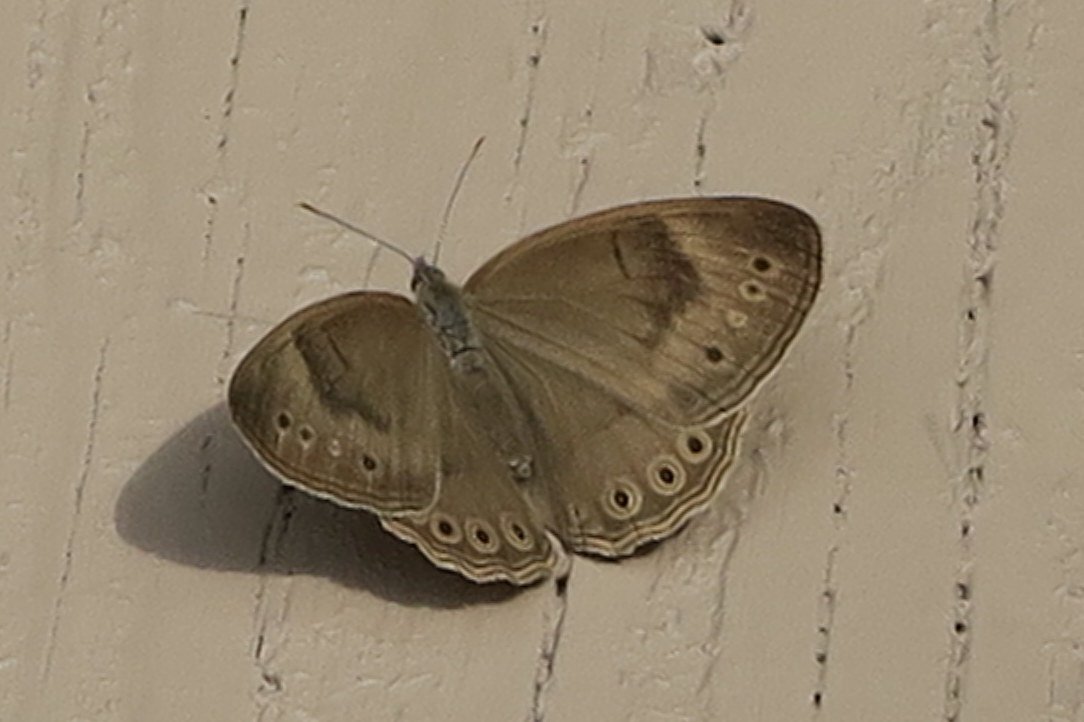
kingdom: Animalia
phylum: Arthropoda
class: Insecta
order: Lepidoptera
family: Nymphalidae
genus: Lethe
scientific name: Lethe eurydice
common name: Appalachian Eyed Brown
